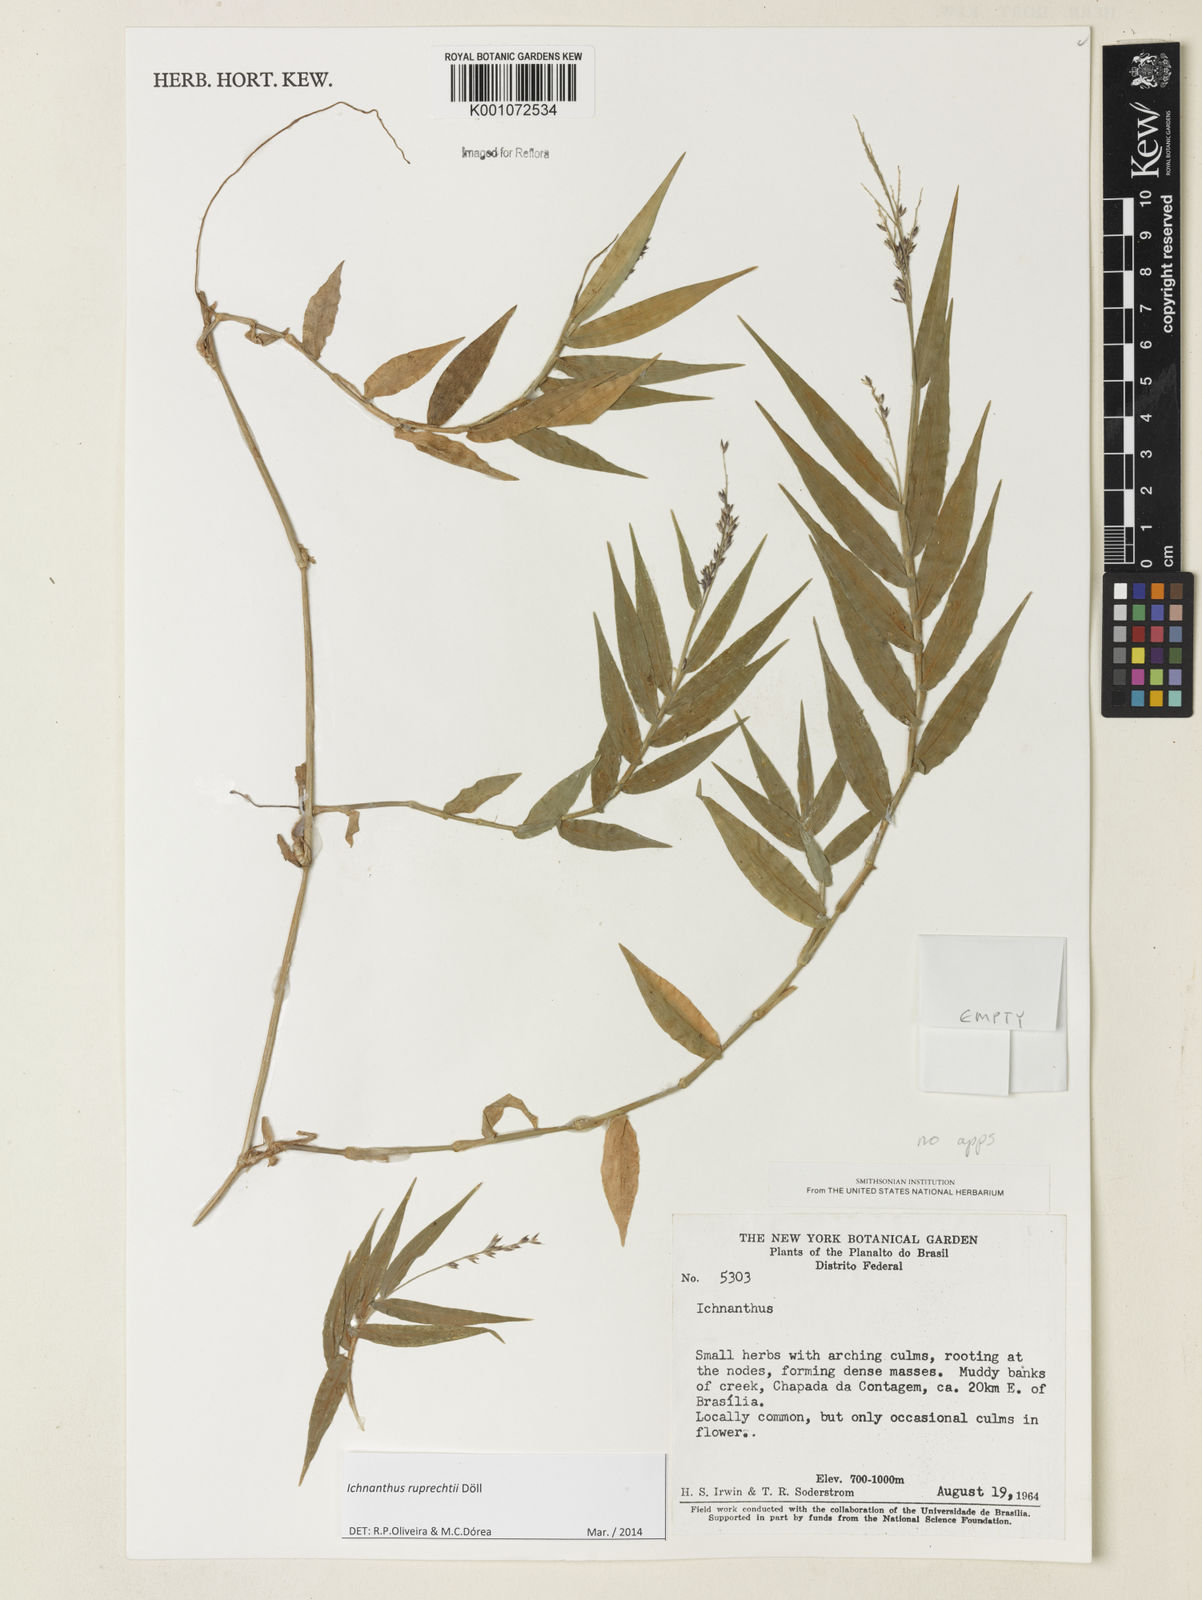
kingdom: Plantae
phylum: Tracheophyta
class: Liliopsida
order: Poales
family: Poaceae
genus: Ichnanthus
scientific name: Ichnanthus
